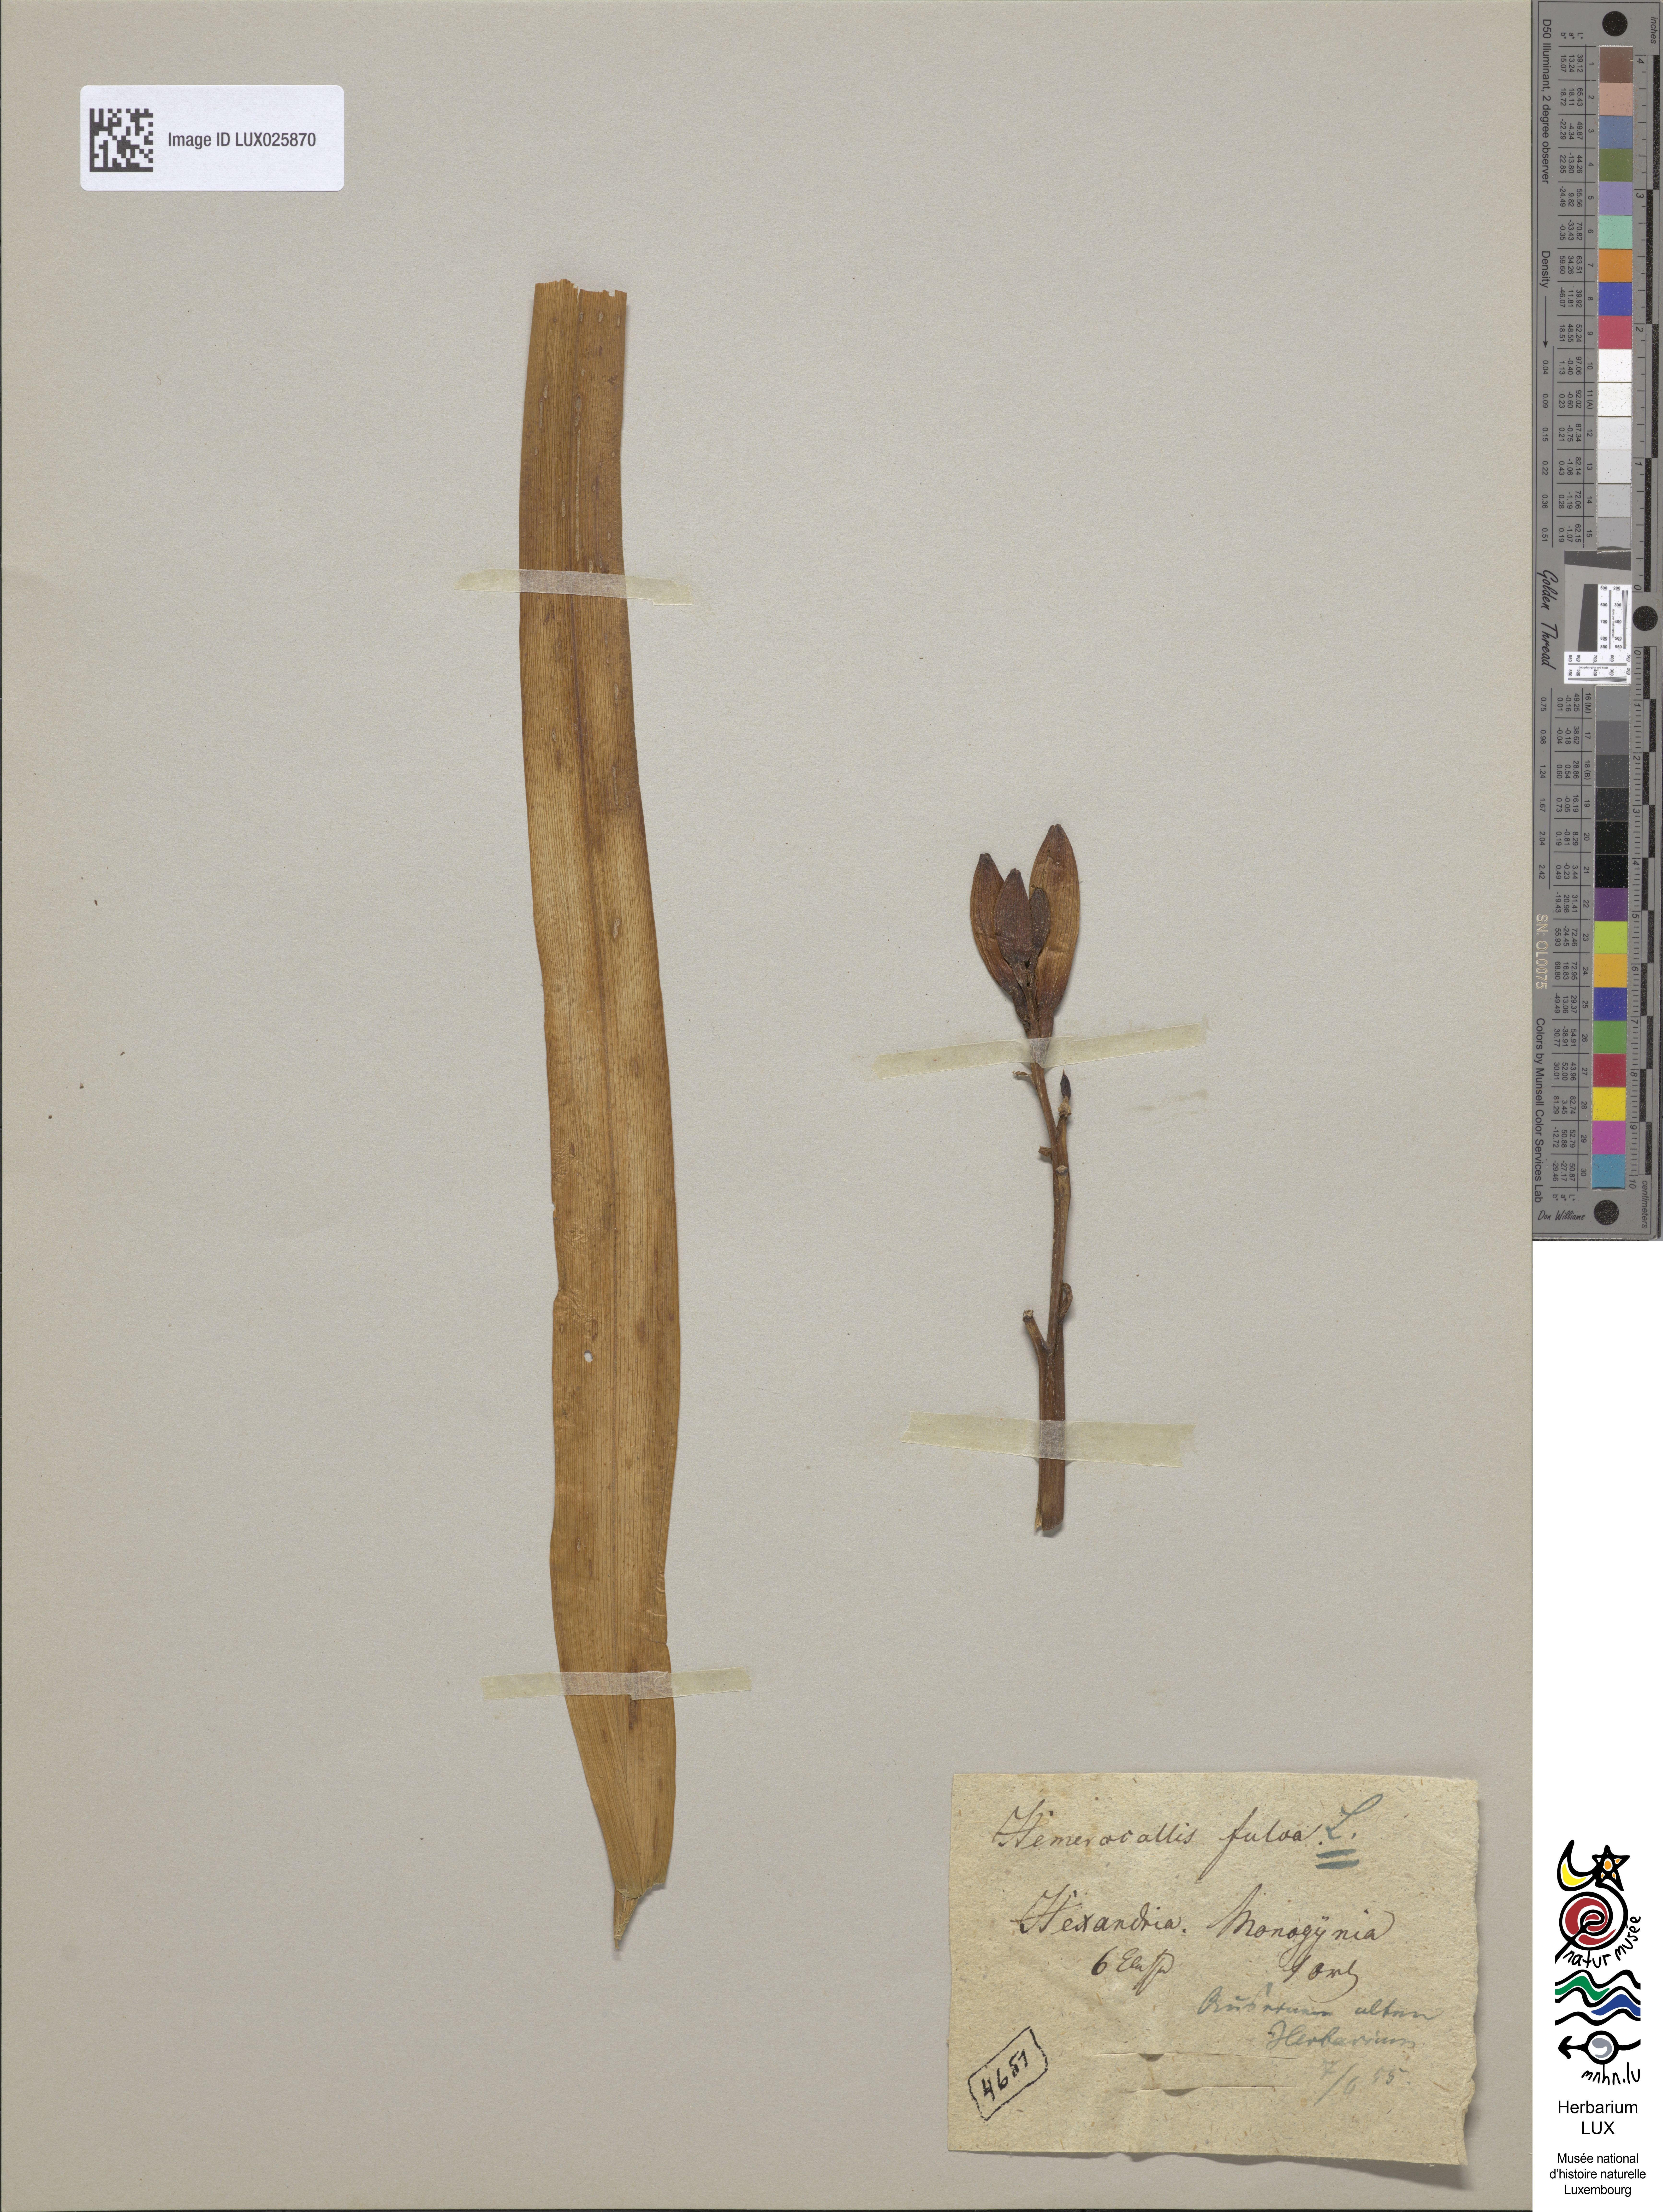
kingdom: Plantae
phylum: Tracheophyta
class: Liliopsida
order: Asparagales
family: Asphodelaceae
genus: Hemerocallis
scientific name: Hemerocallis fulva
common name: Orange day-lily
